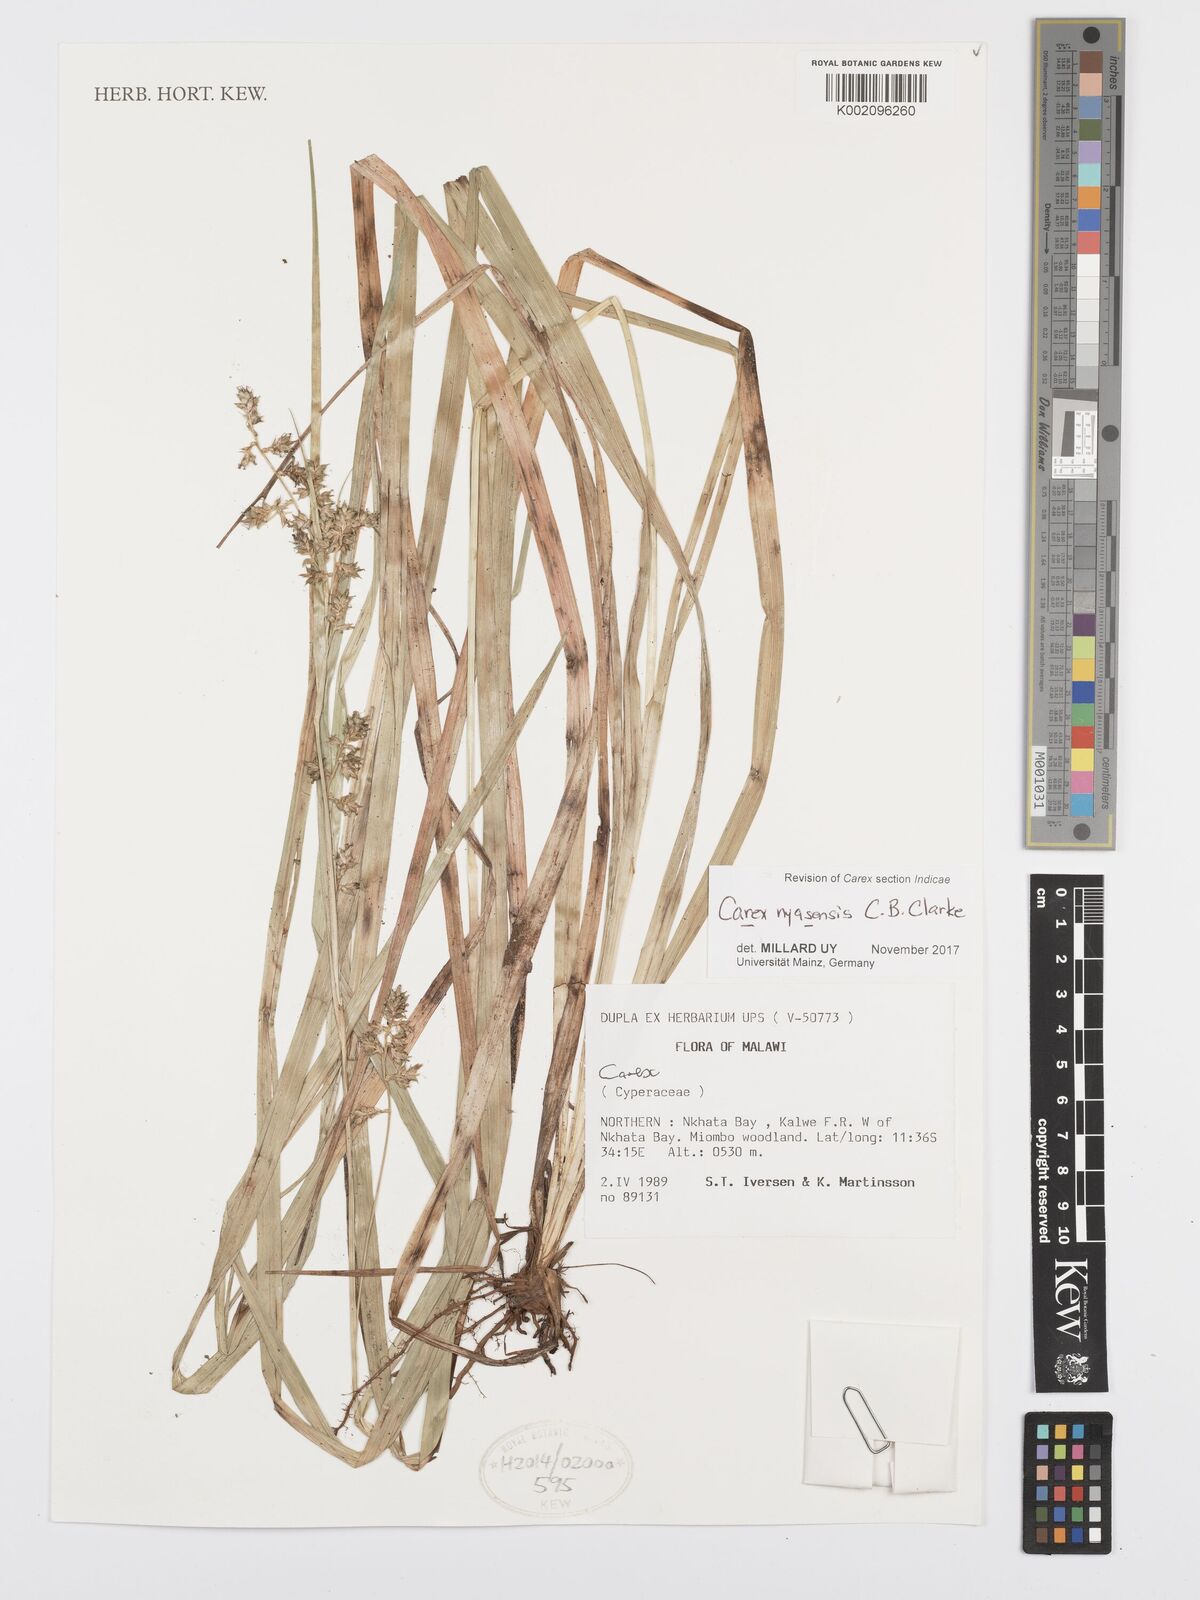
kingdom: Plantae
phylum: Tracheophyta
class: Liliopsida
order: Poales
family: Cyperaceae
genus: Carex
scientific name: Carex spicatopaniculata
